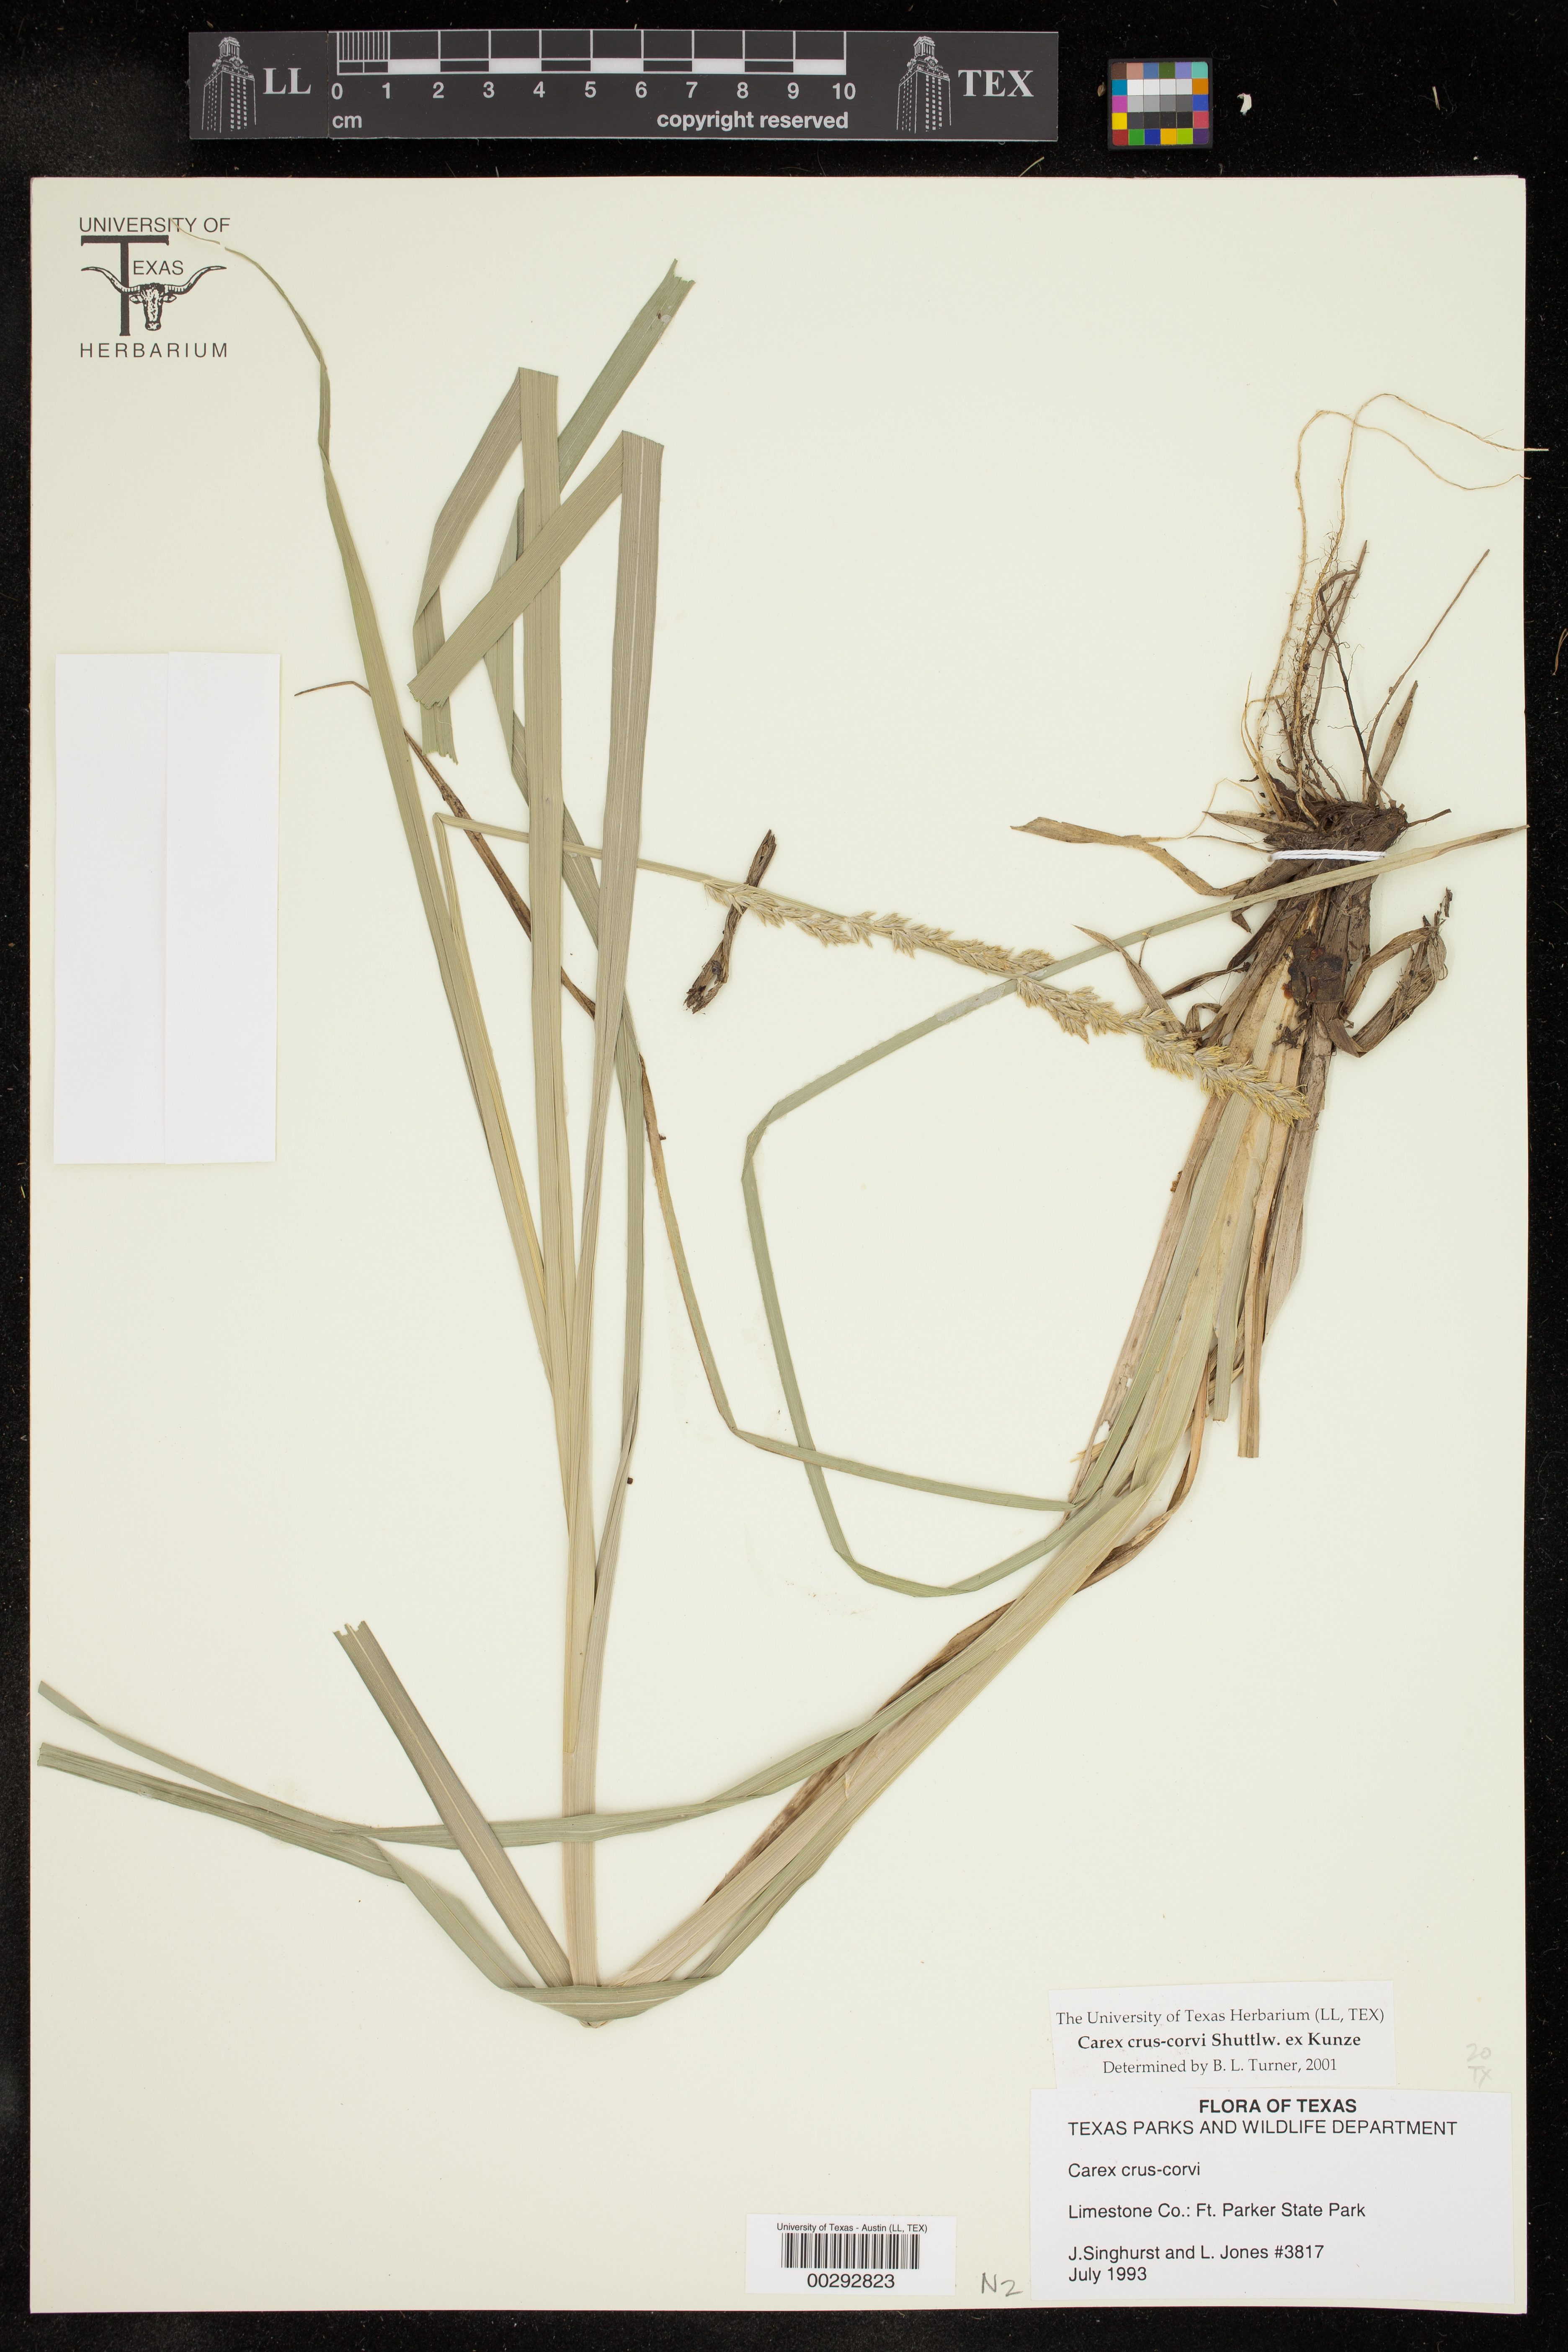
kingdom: Plantae
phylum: Tracheophyta
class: Liliopsida
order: Poales
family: Cyperaceae
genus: Carex
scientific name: Carex crus-corvi
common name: Crow-spur sedge
